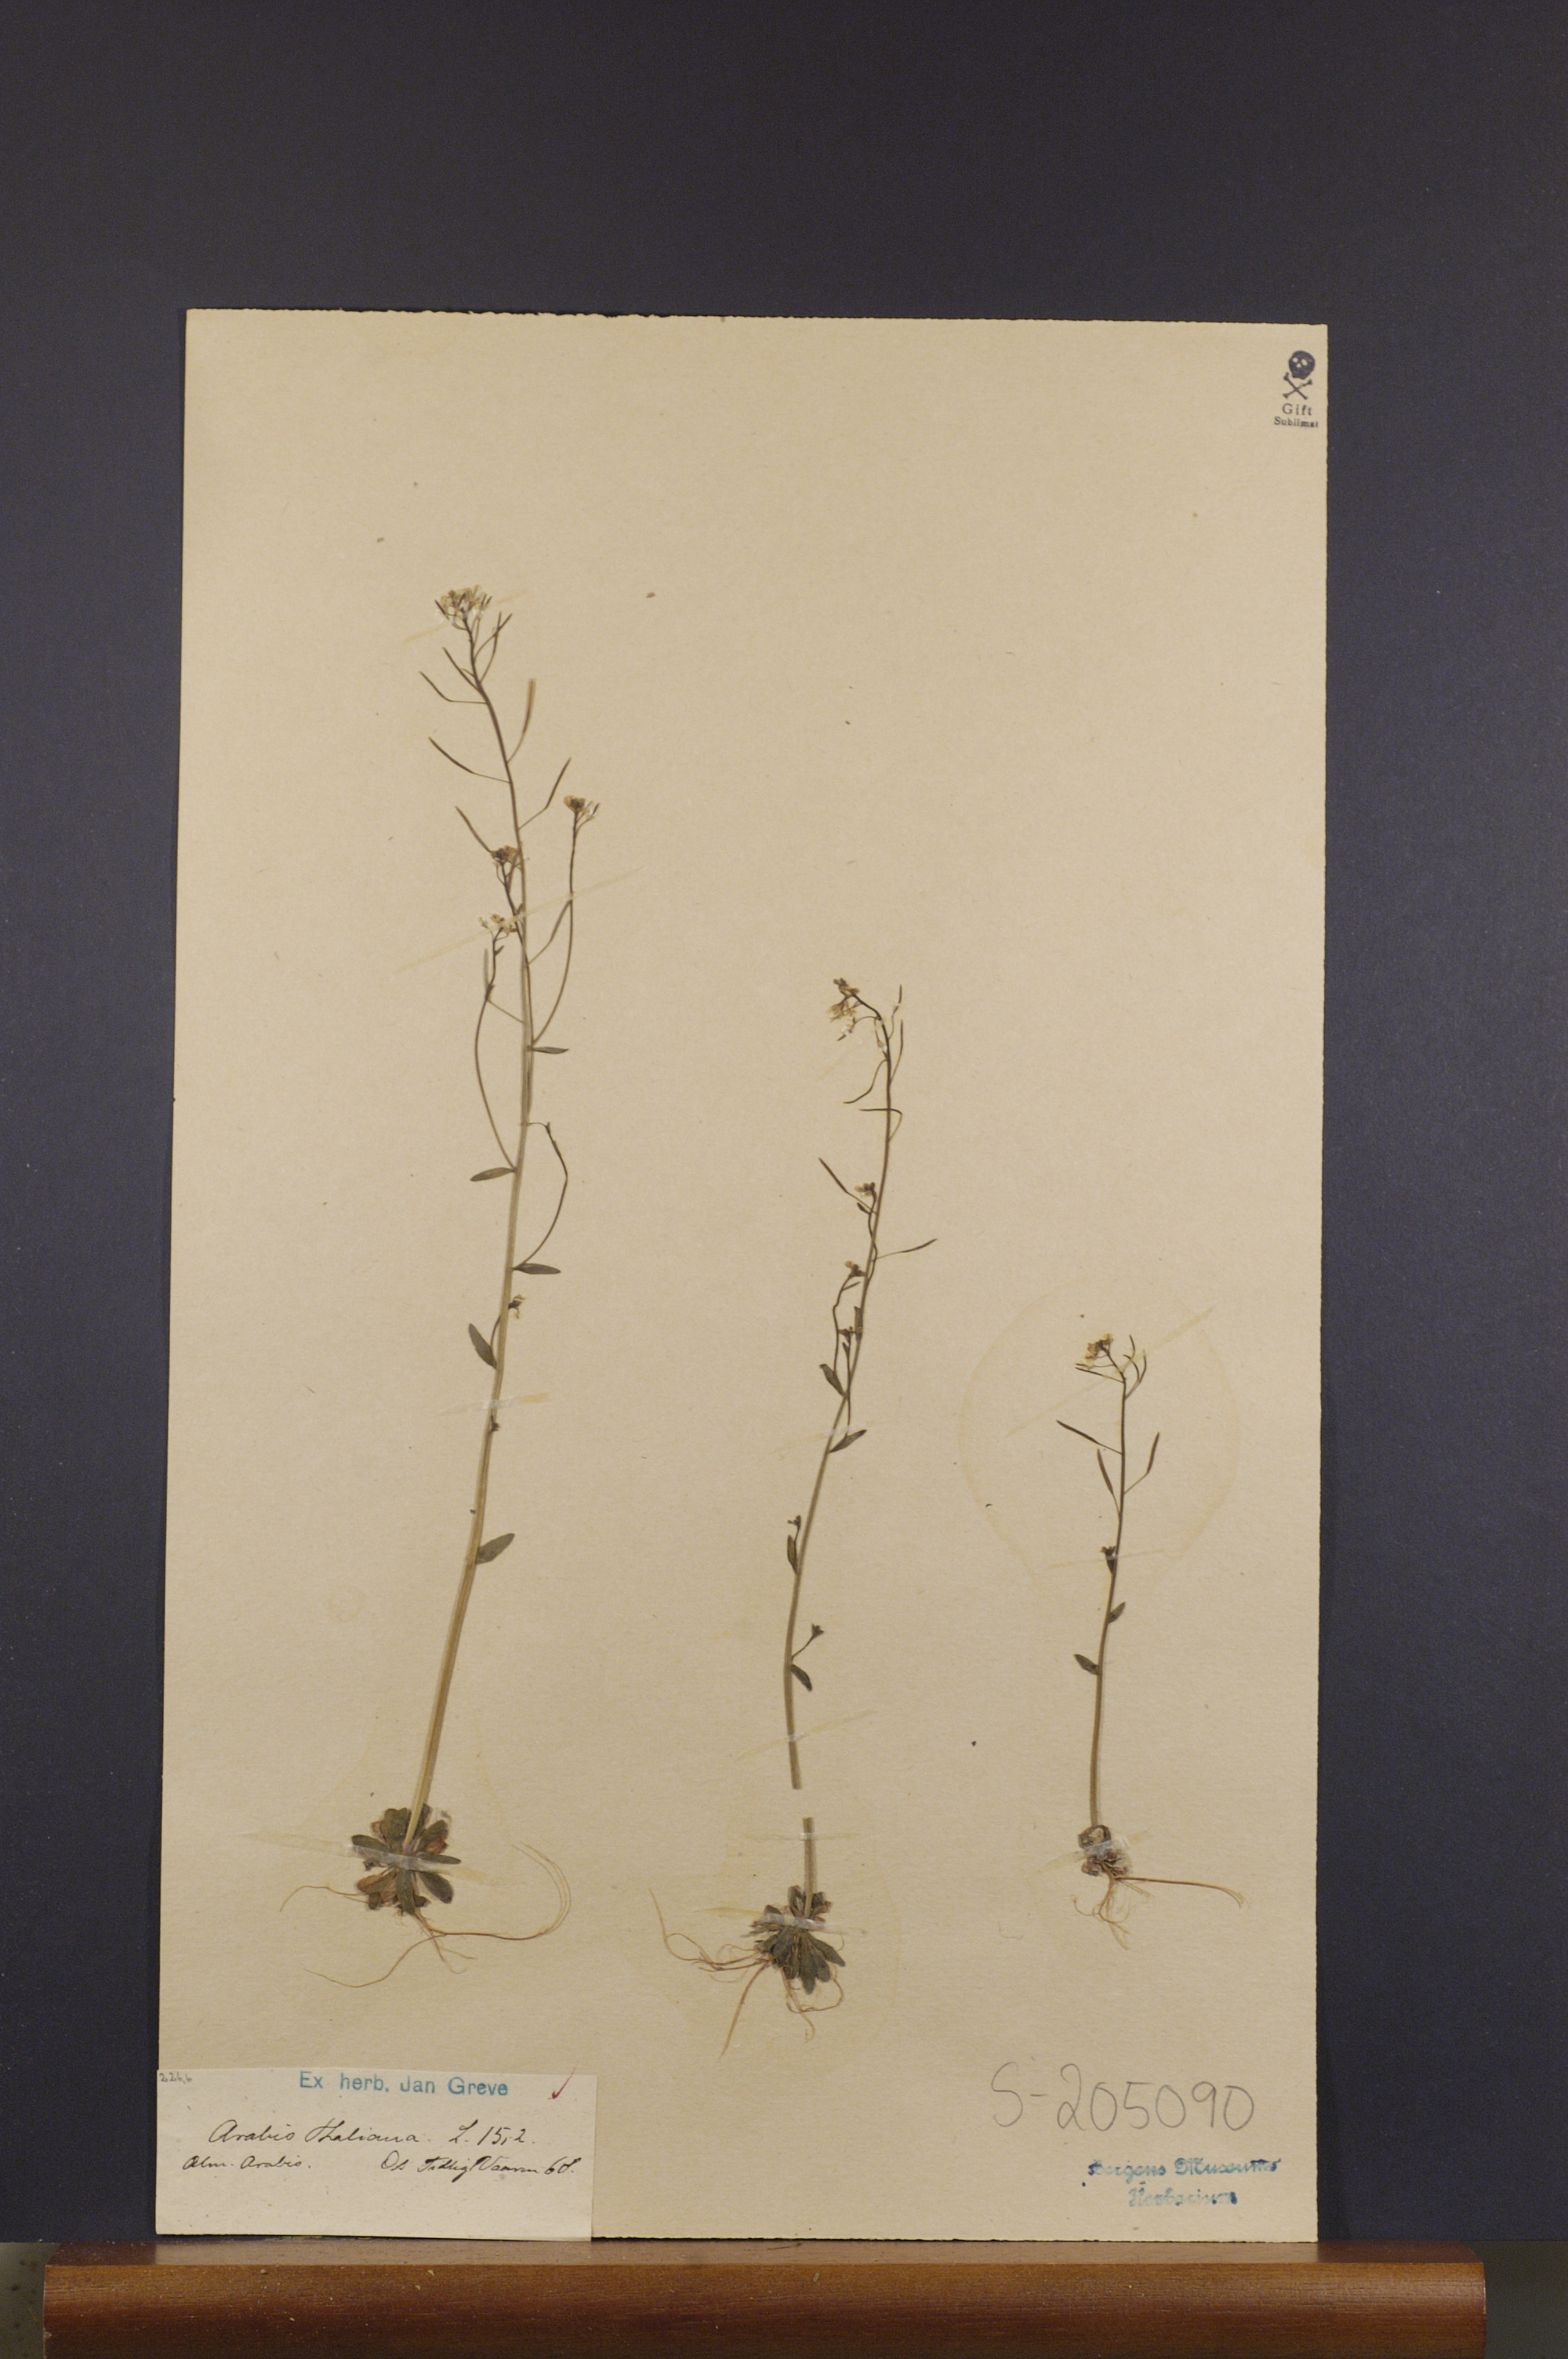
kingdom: Plantae
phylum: Tracheophyta
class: Magnoliopsida
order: Brassicales
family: Brassicaceae
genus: Arabidopsis
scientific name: Arabidopsis thaliana
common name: Thale cress
